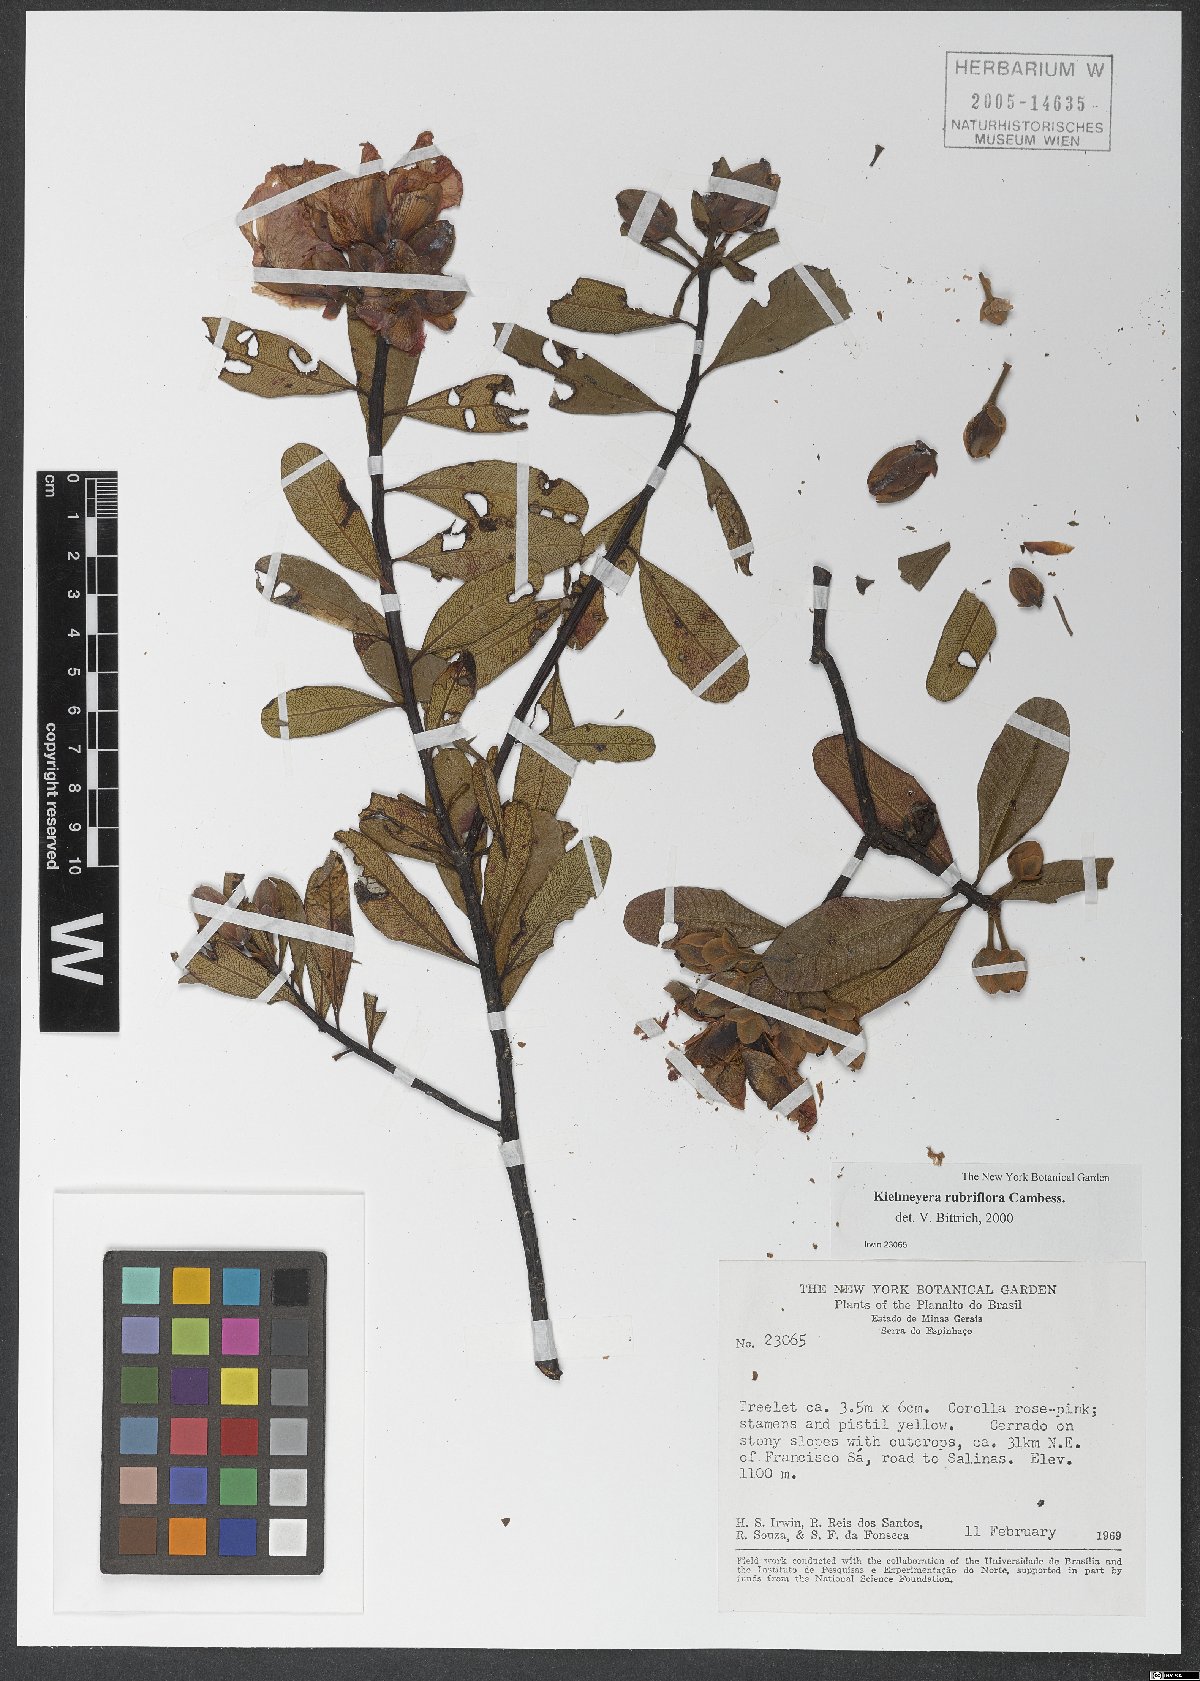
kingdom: Plantae
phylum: Tracheophyta
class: Magnoliopsida
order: Malpighiales
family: Calophyllaceae
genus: Kielmeyera
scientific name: Kielmeyera rubriflora
